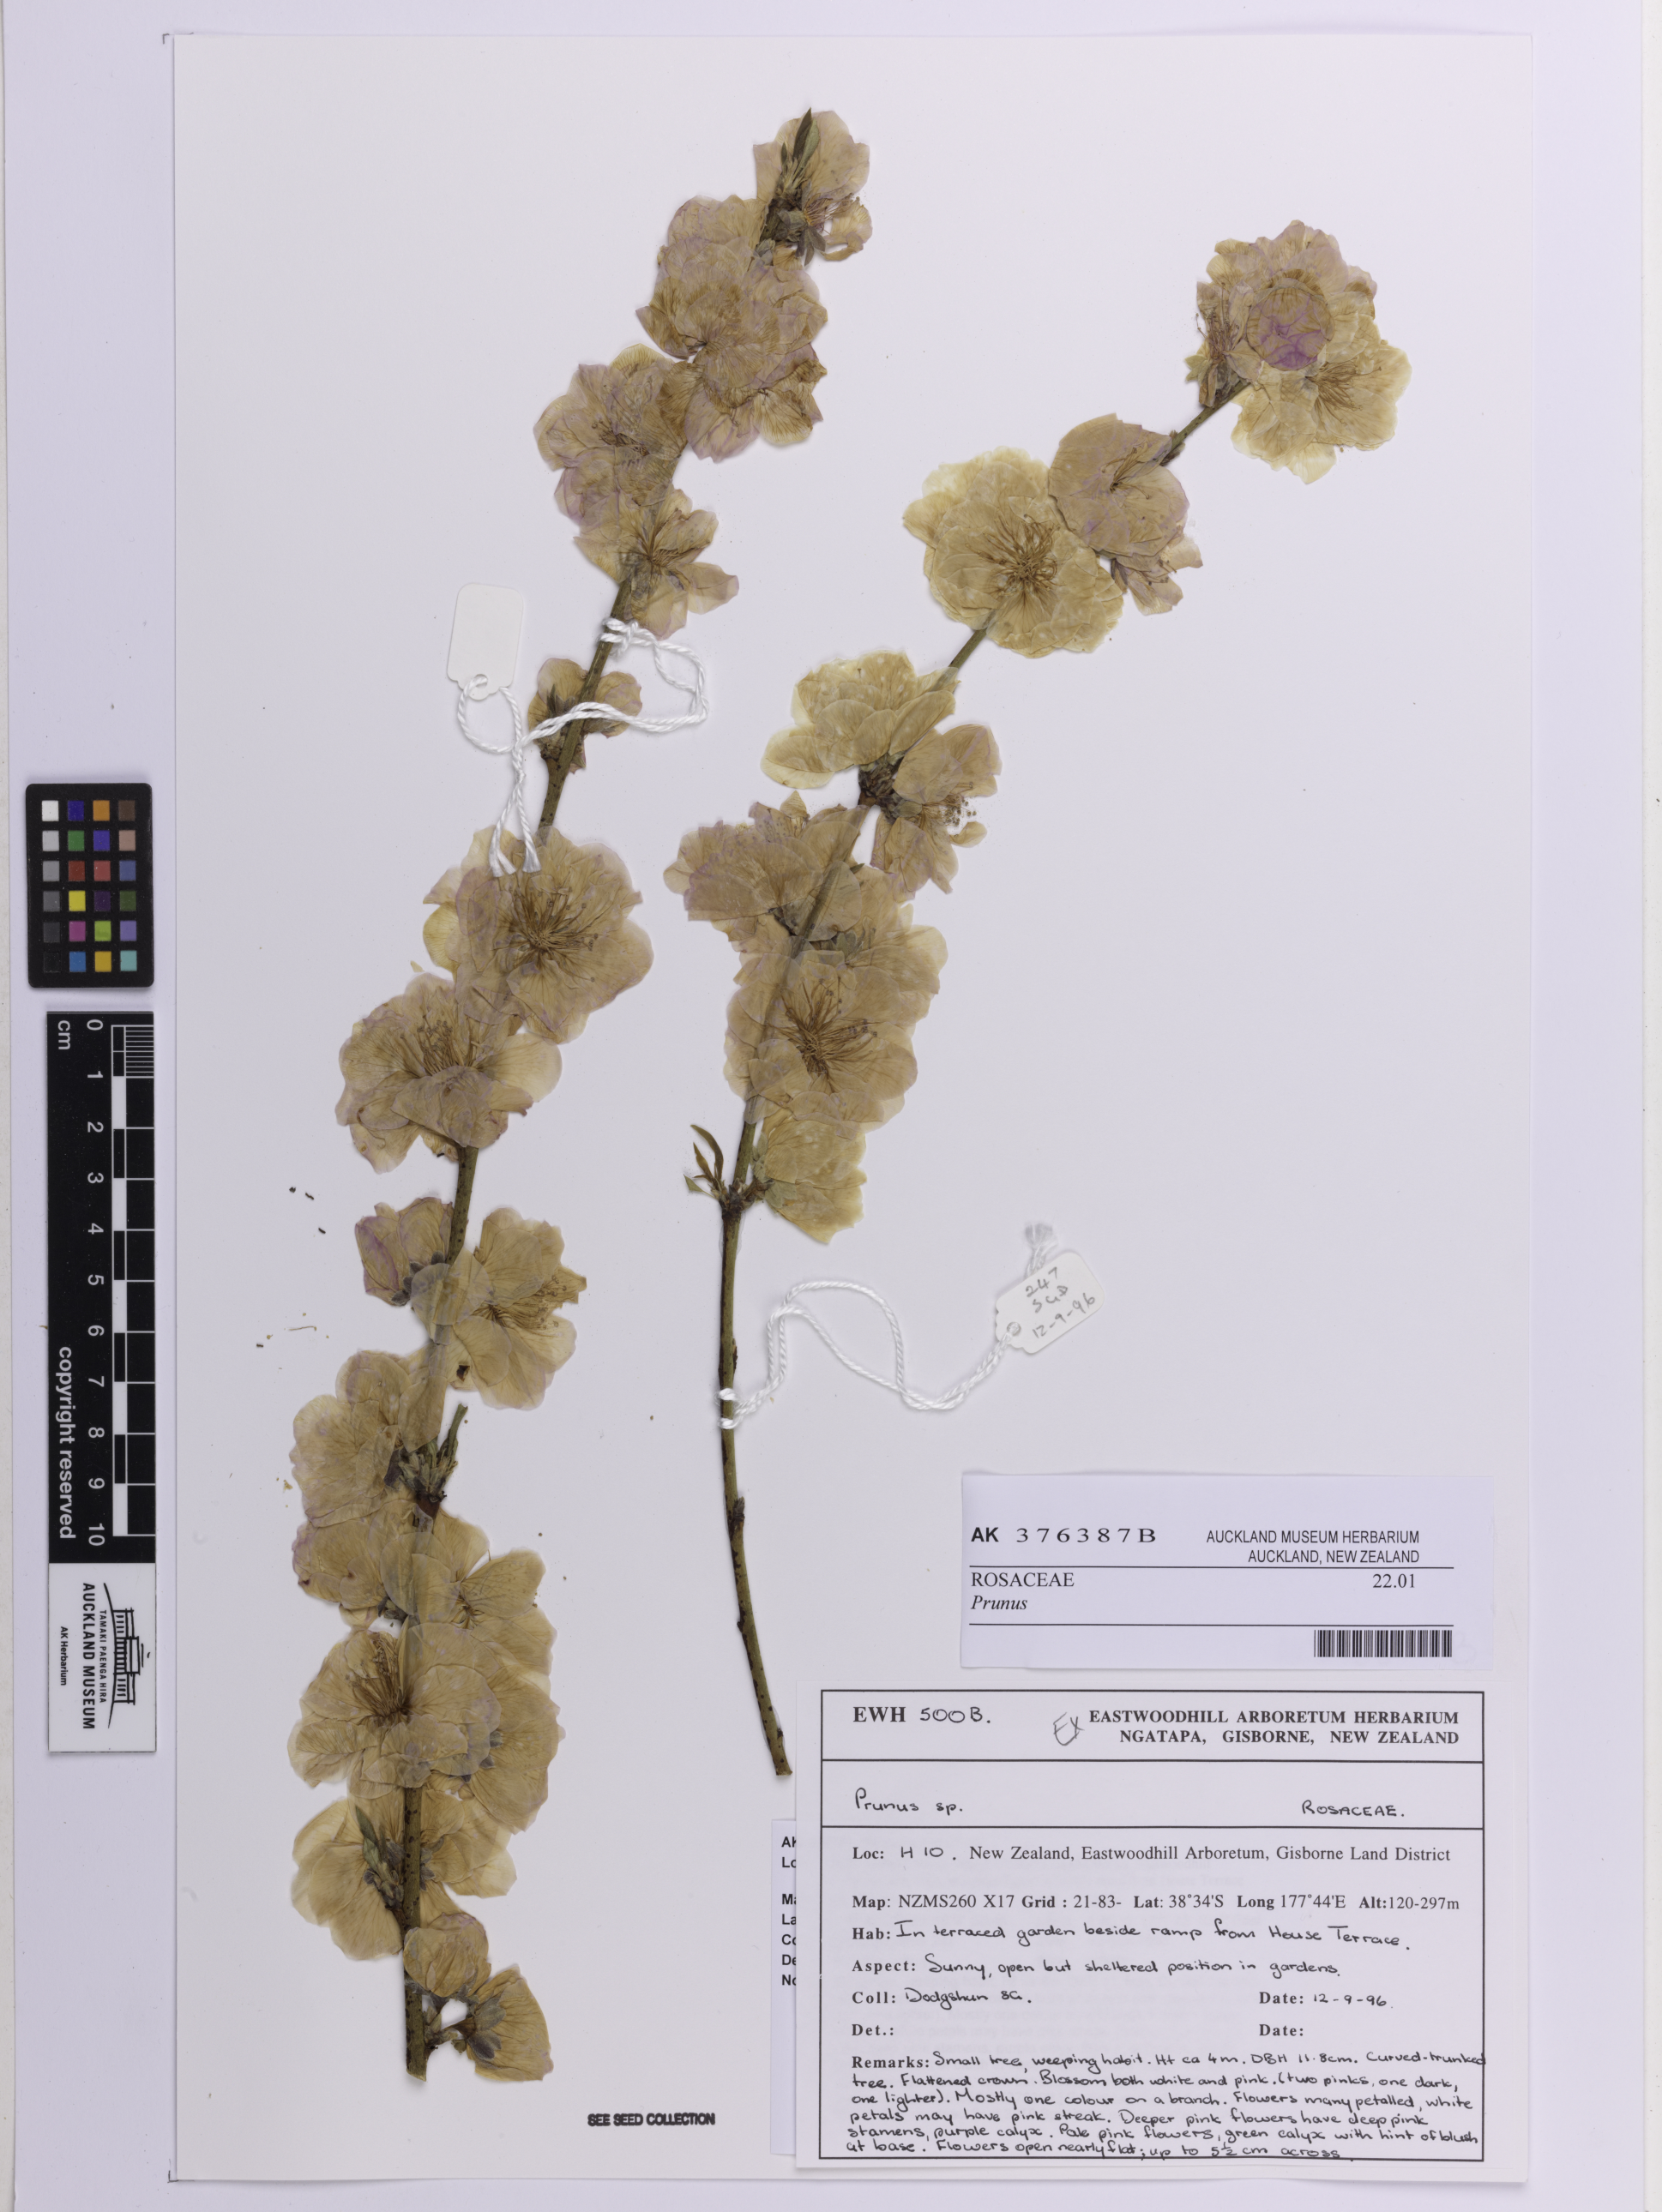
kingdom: Plantae
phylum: Tracheophyta
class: Magnoliopsida
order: Rosales
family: Rosaceae
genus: Prunus
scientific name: Prunus
